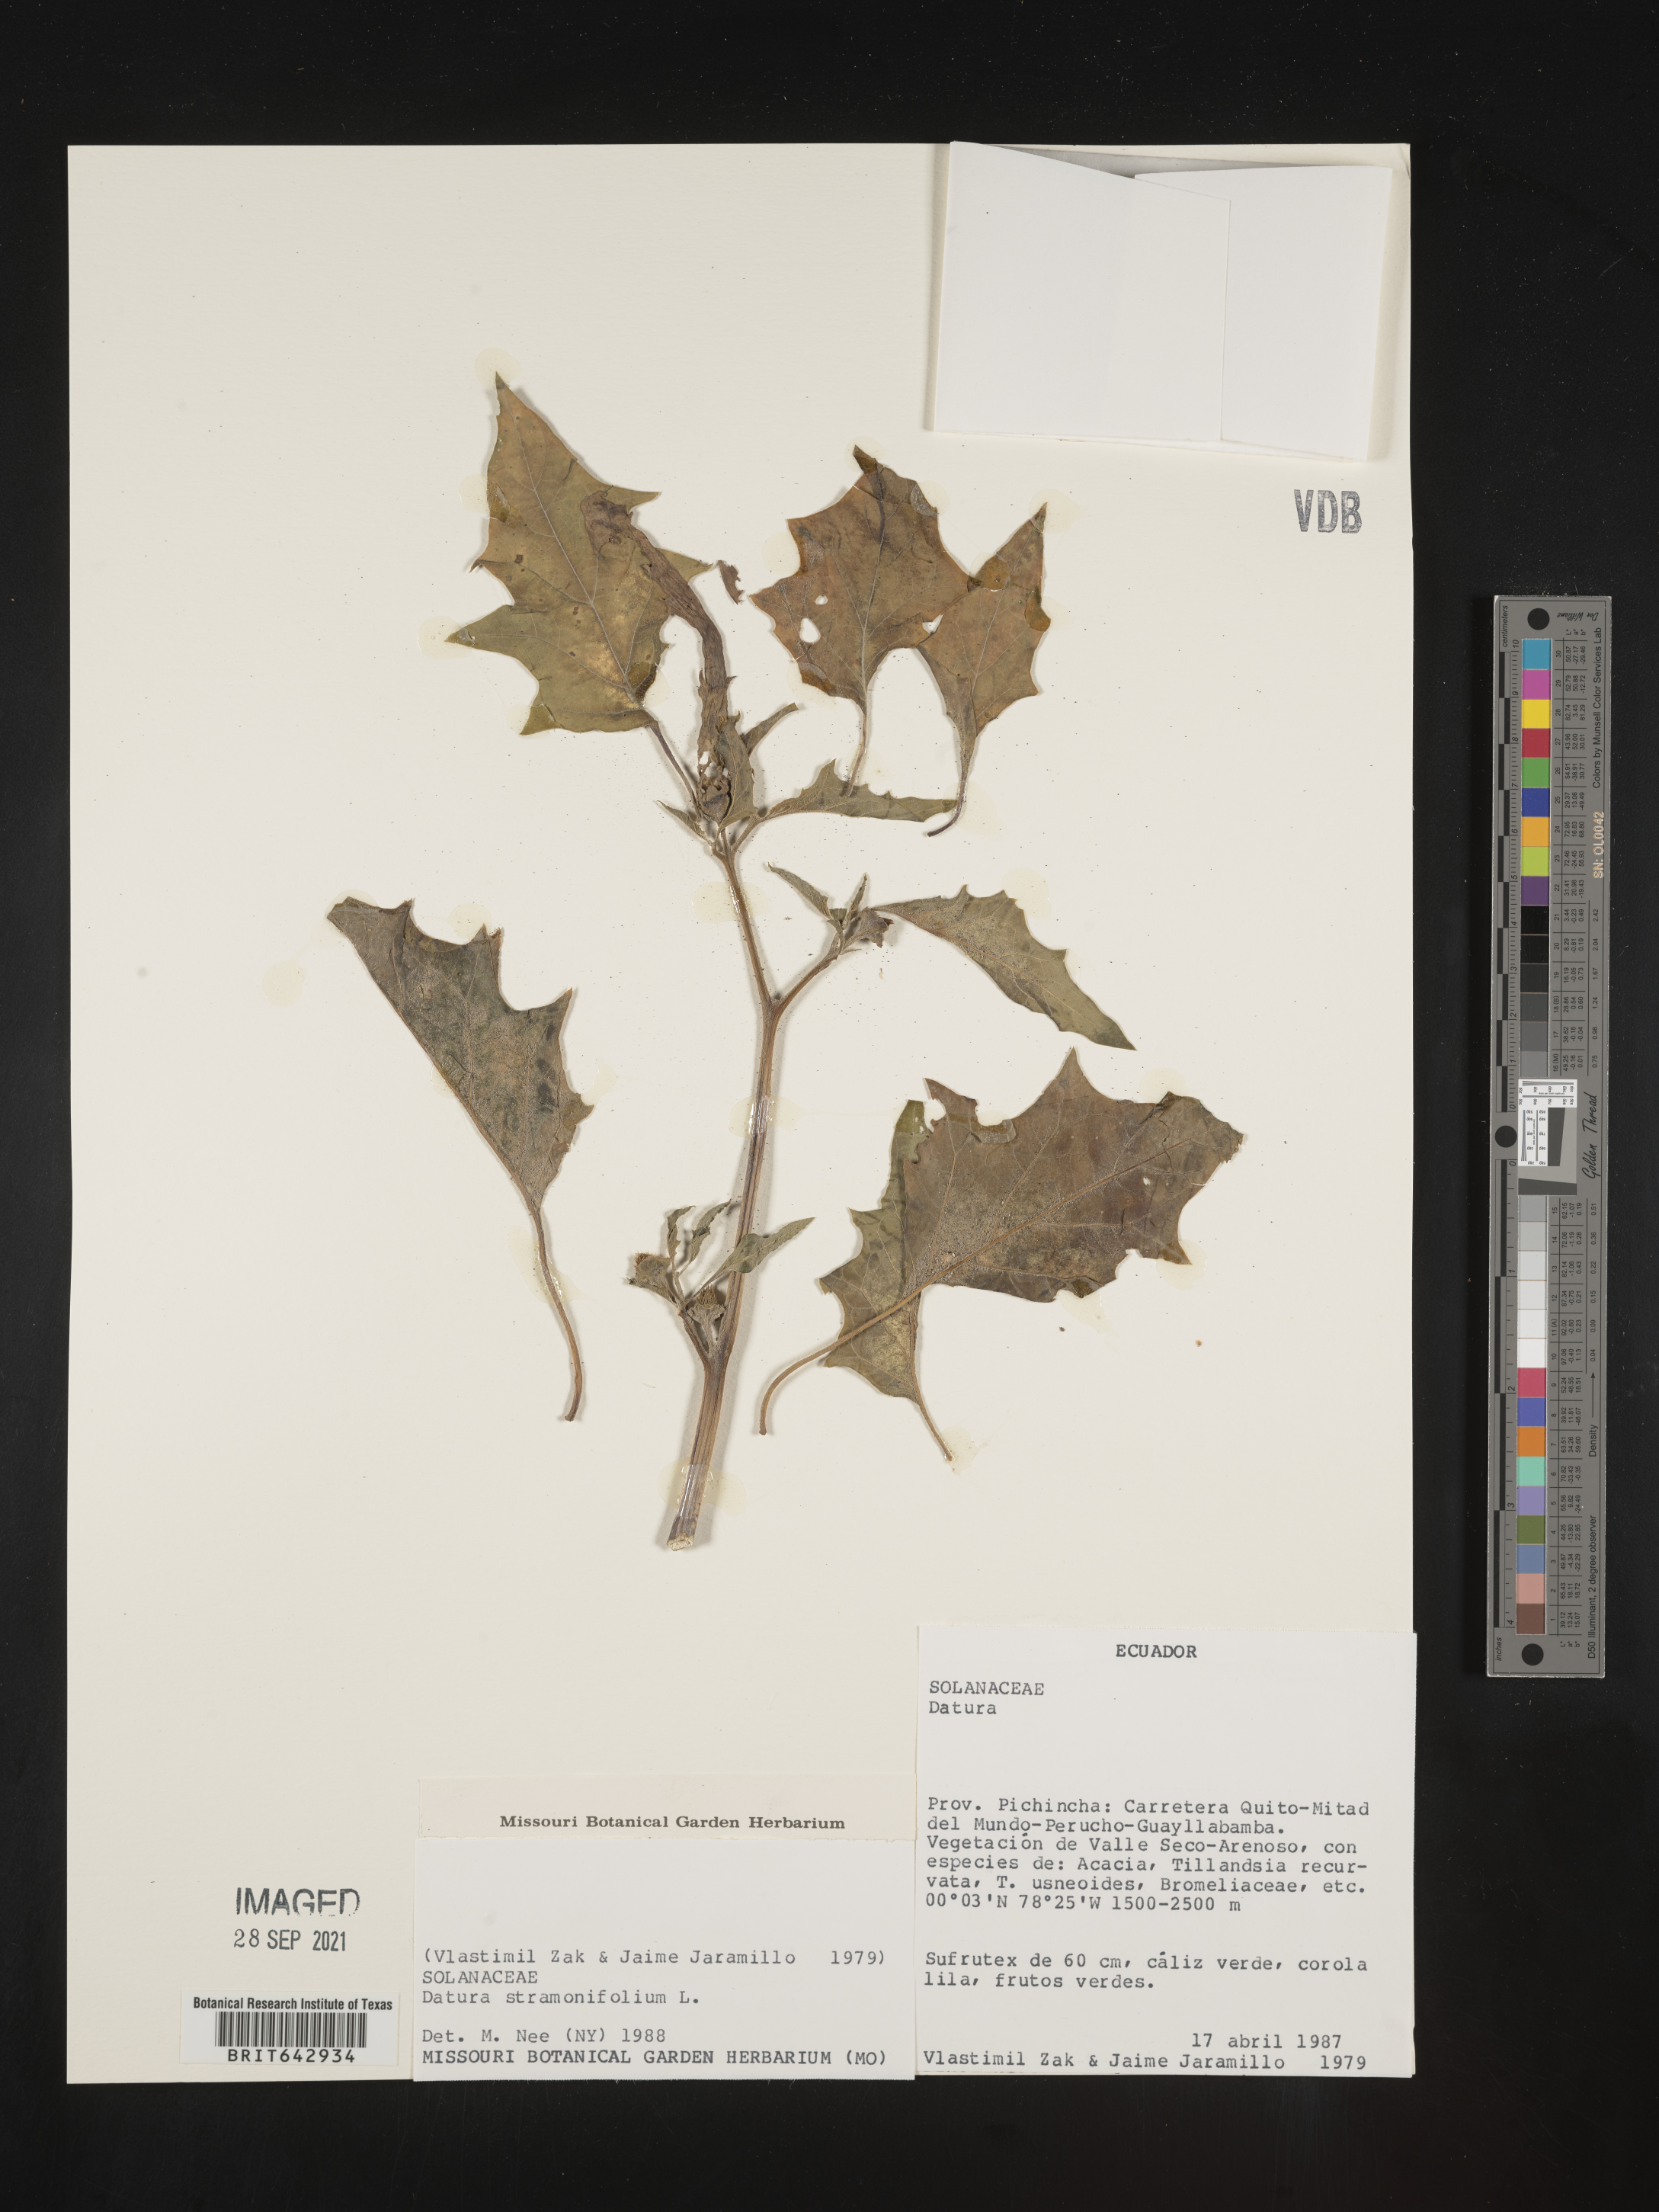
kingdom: Plantae
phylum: Tracheophyta
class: Magnoliopsida
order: Solanales
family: Solanaceae
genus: Datura
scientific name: Datura
